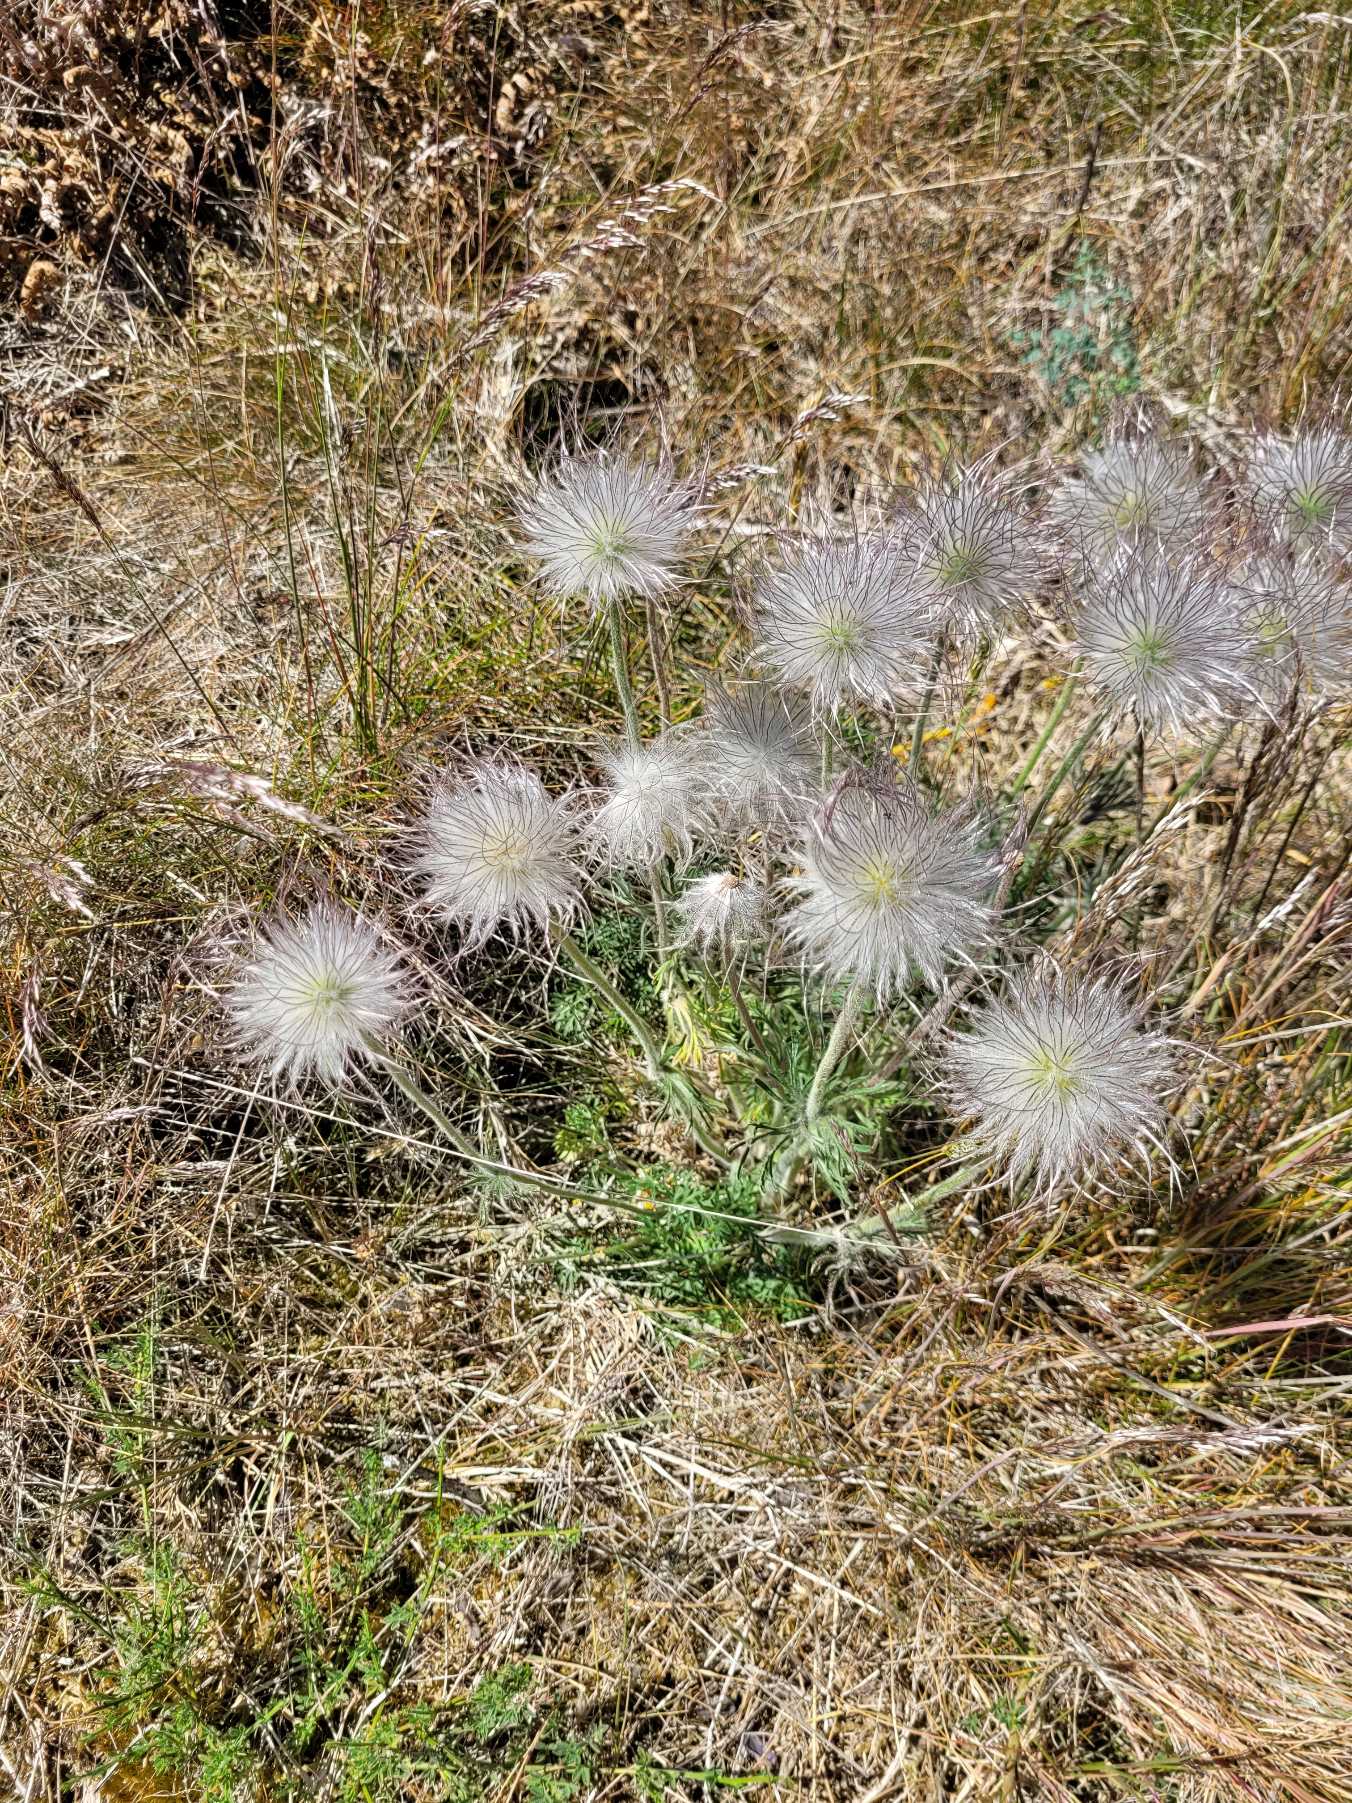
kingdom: Plantae
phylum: Tracheophyta
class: Magnoliopsida
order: Ranunculales
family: Ranunculaceae
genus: Pulsatilla
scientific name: Pulsatilla
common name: Kobjældeslægten
